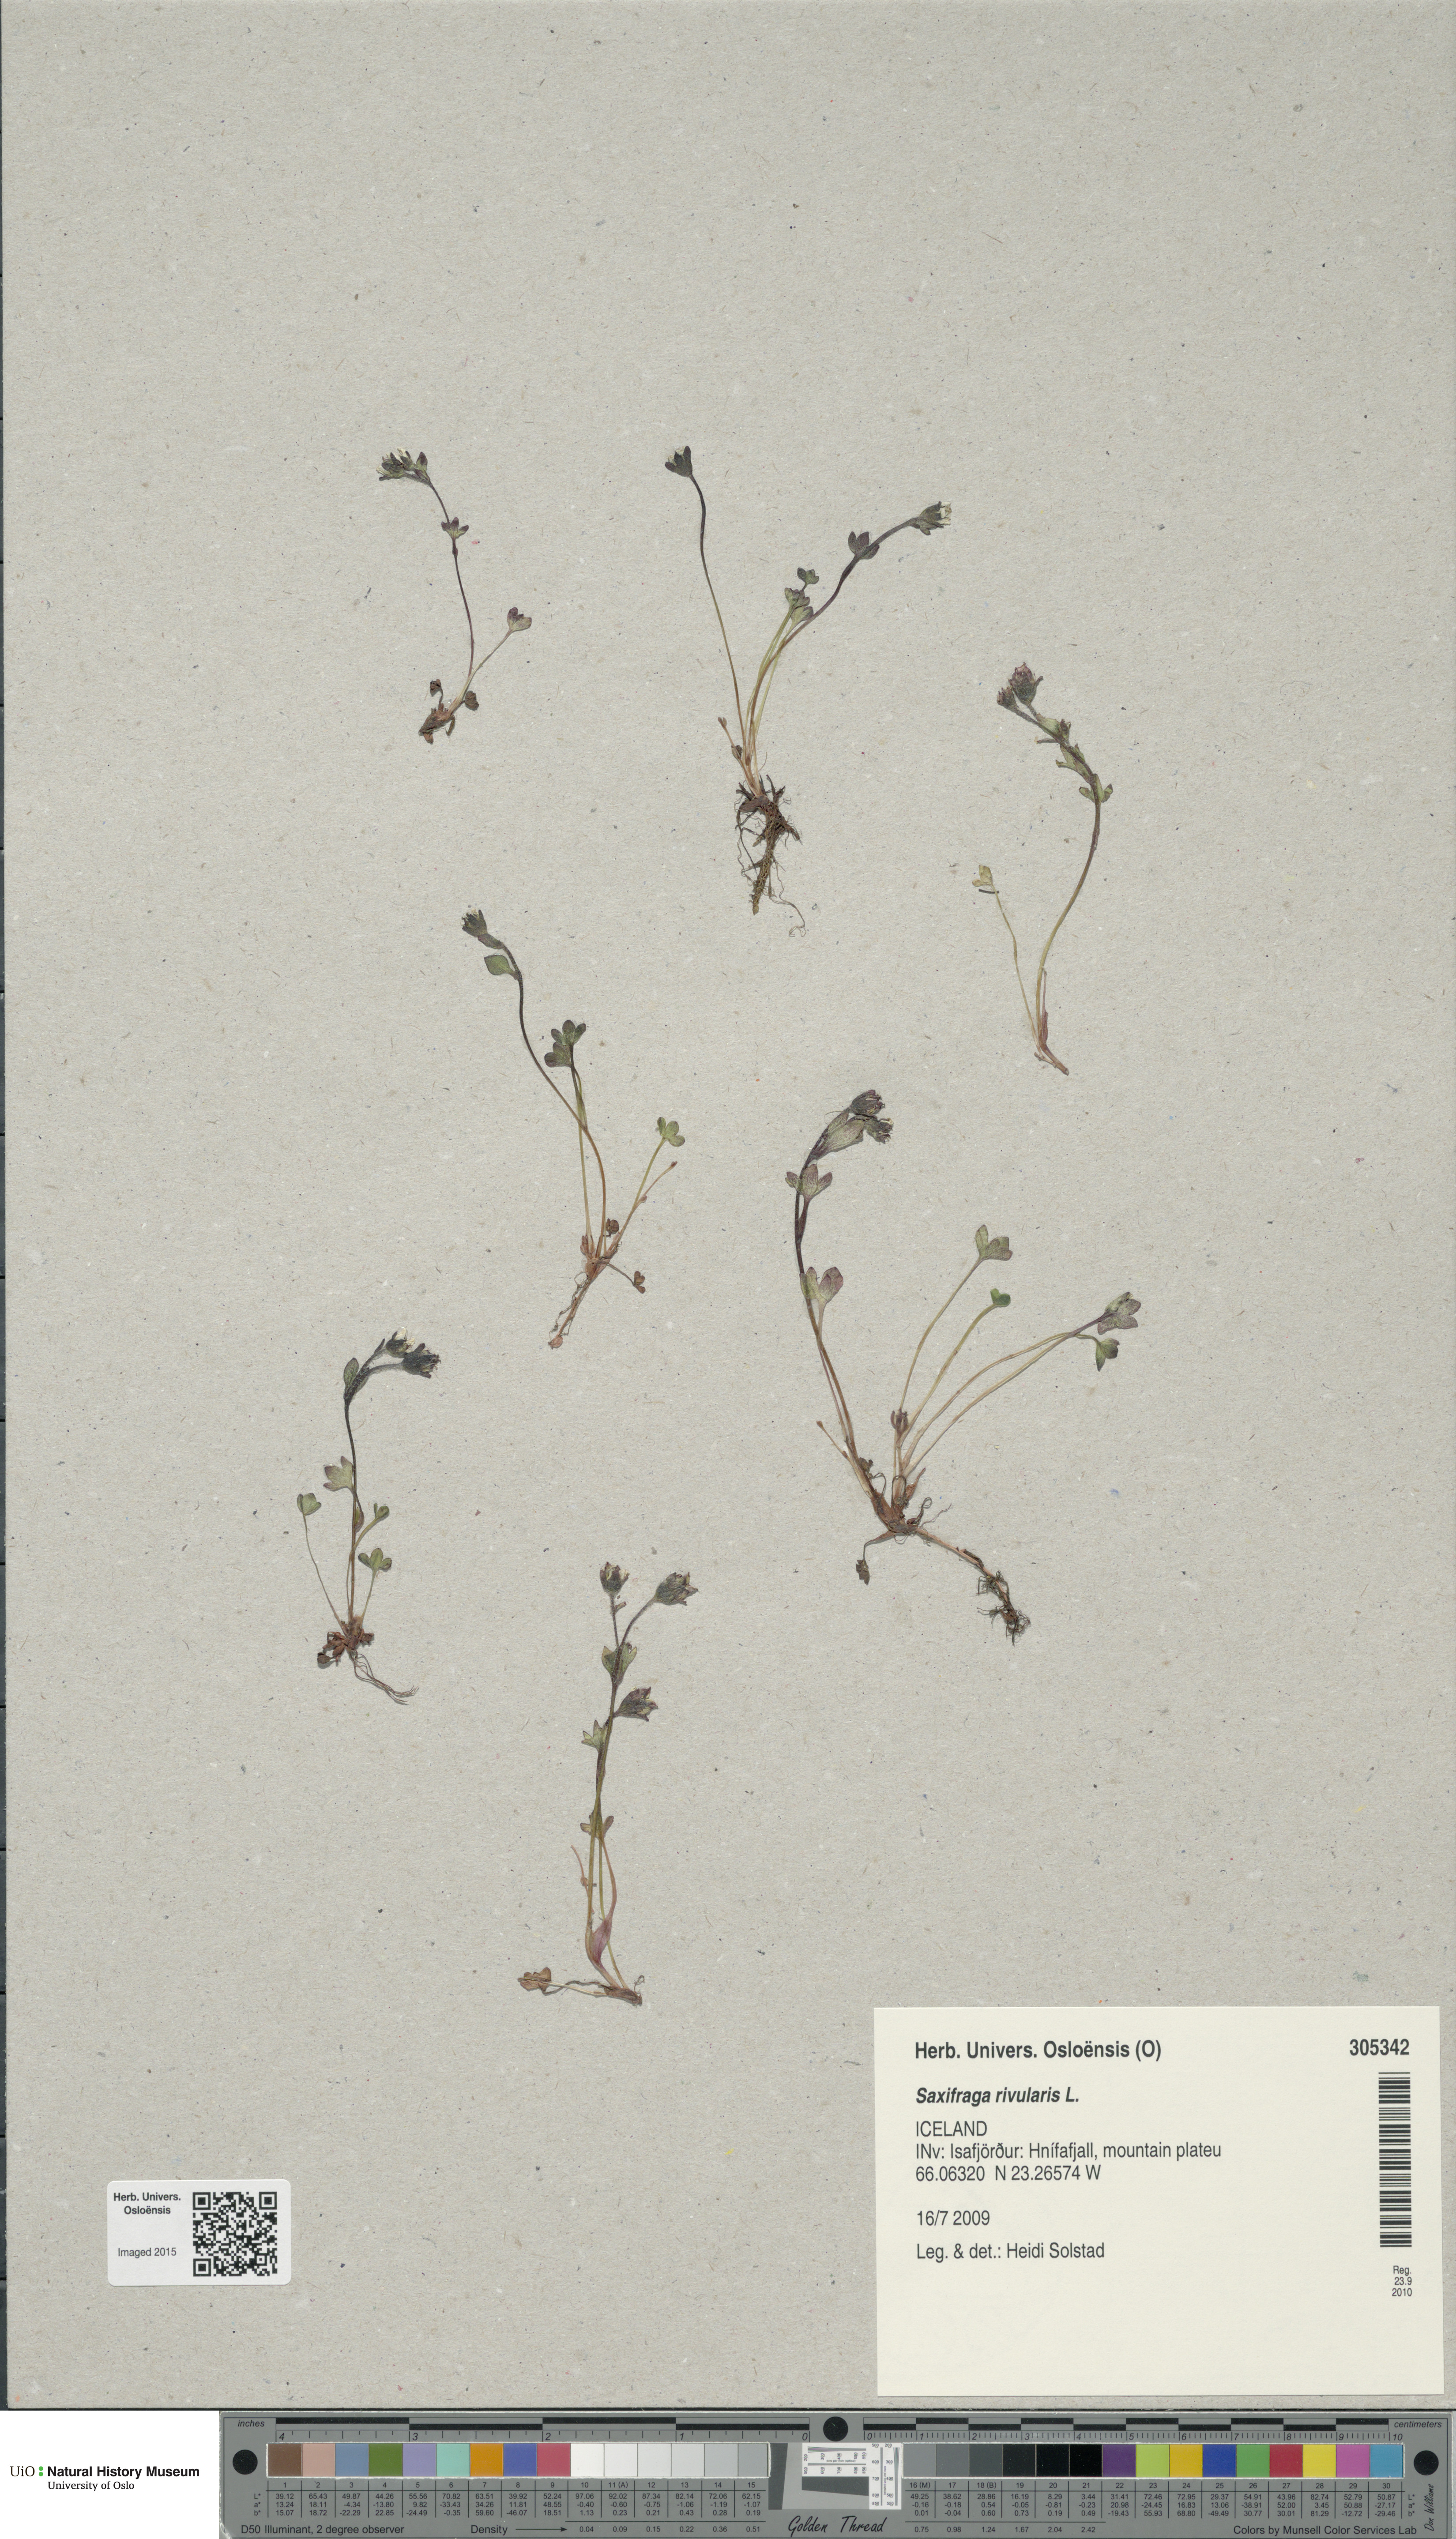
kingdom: Plantae
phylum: Tracheophyta
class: Magnoliopsida
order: Saxifragales
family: Saxifragaceae
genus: Saxifraga
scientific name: Saxifraga rivularis
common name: Highland saxifrage
